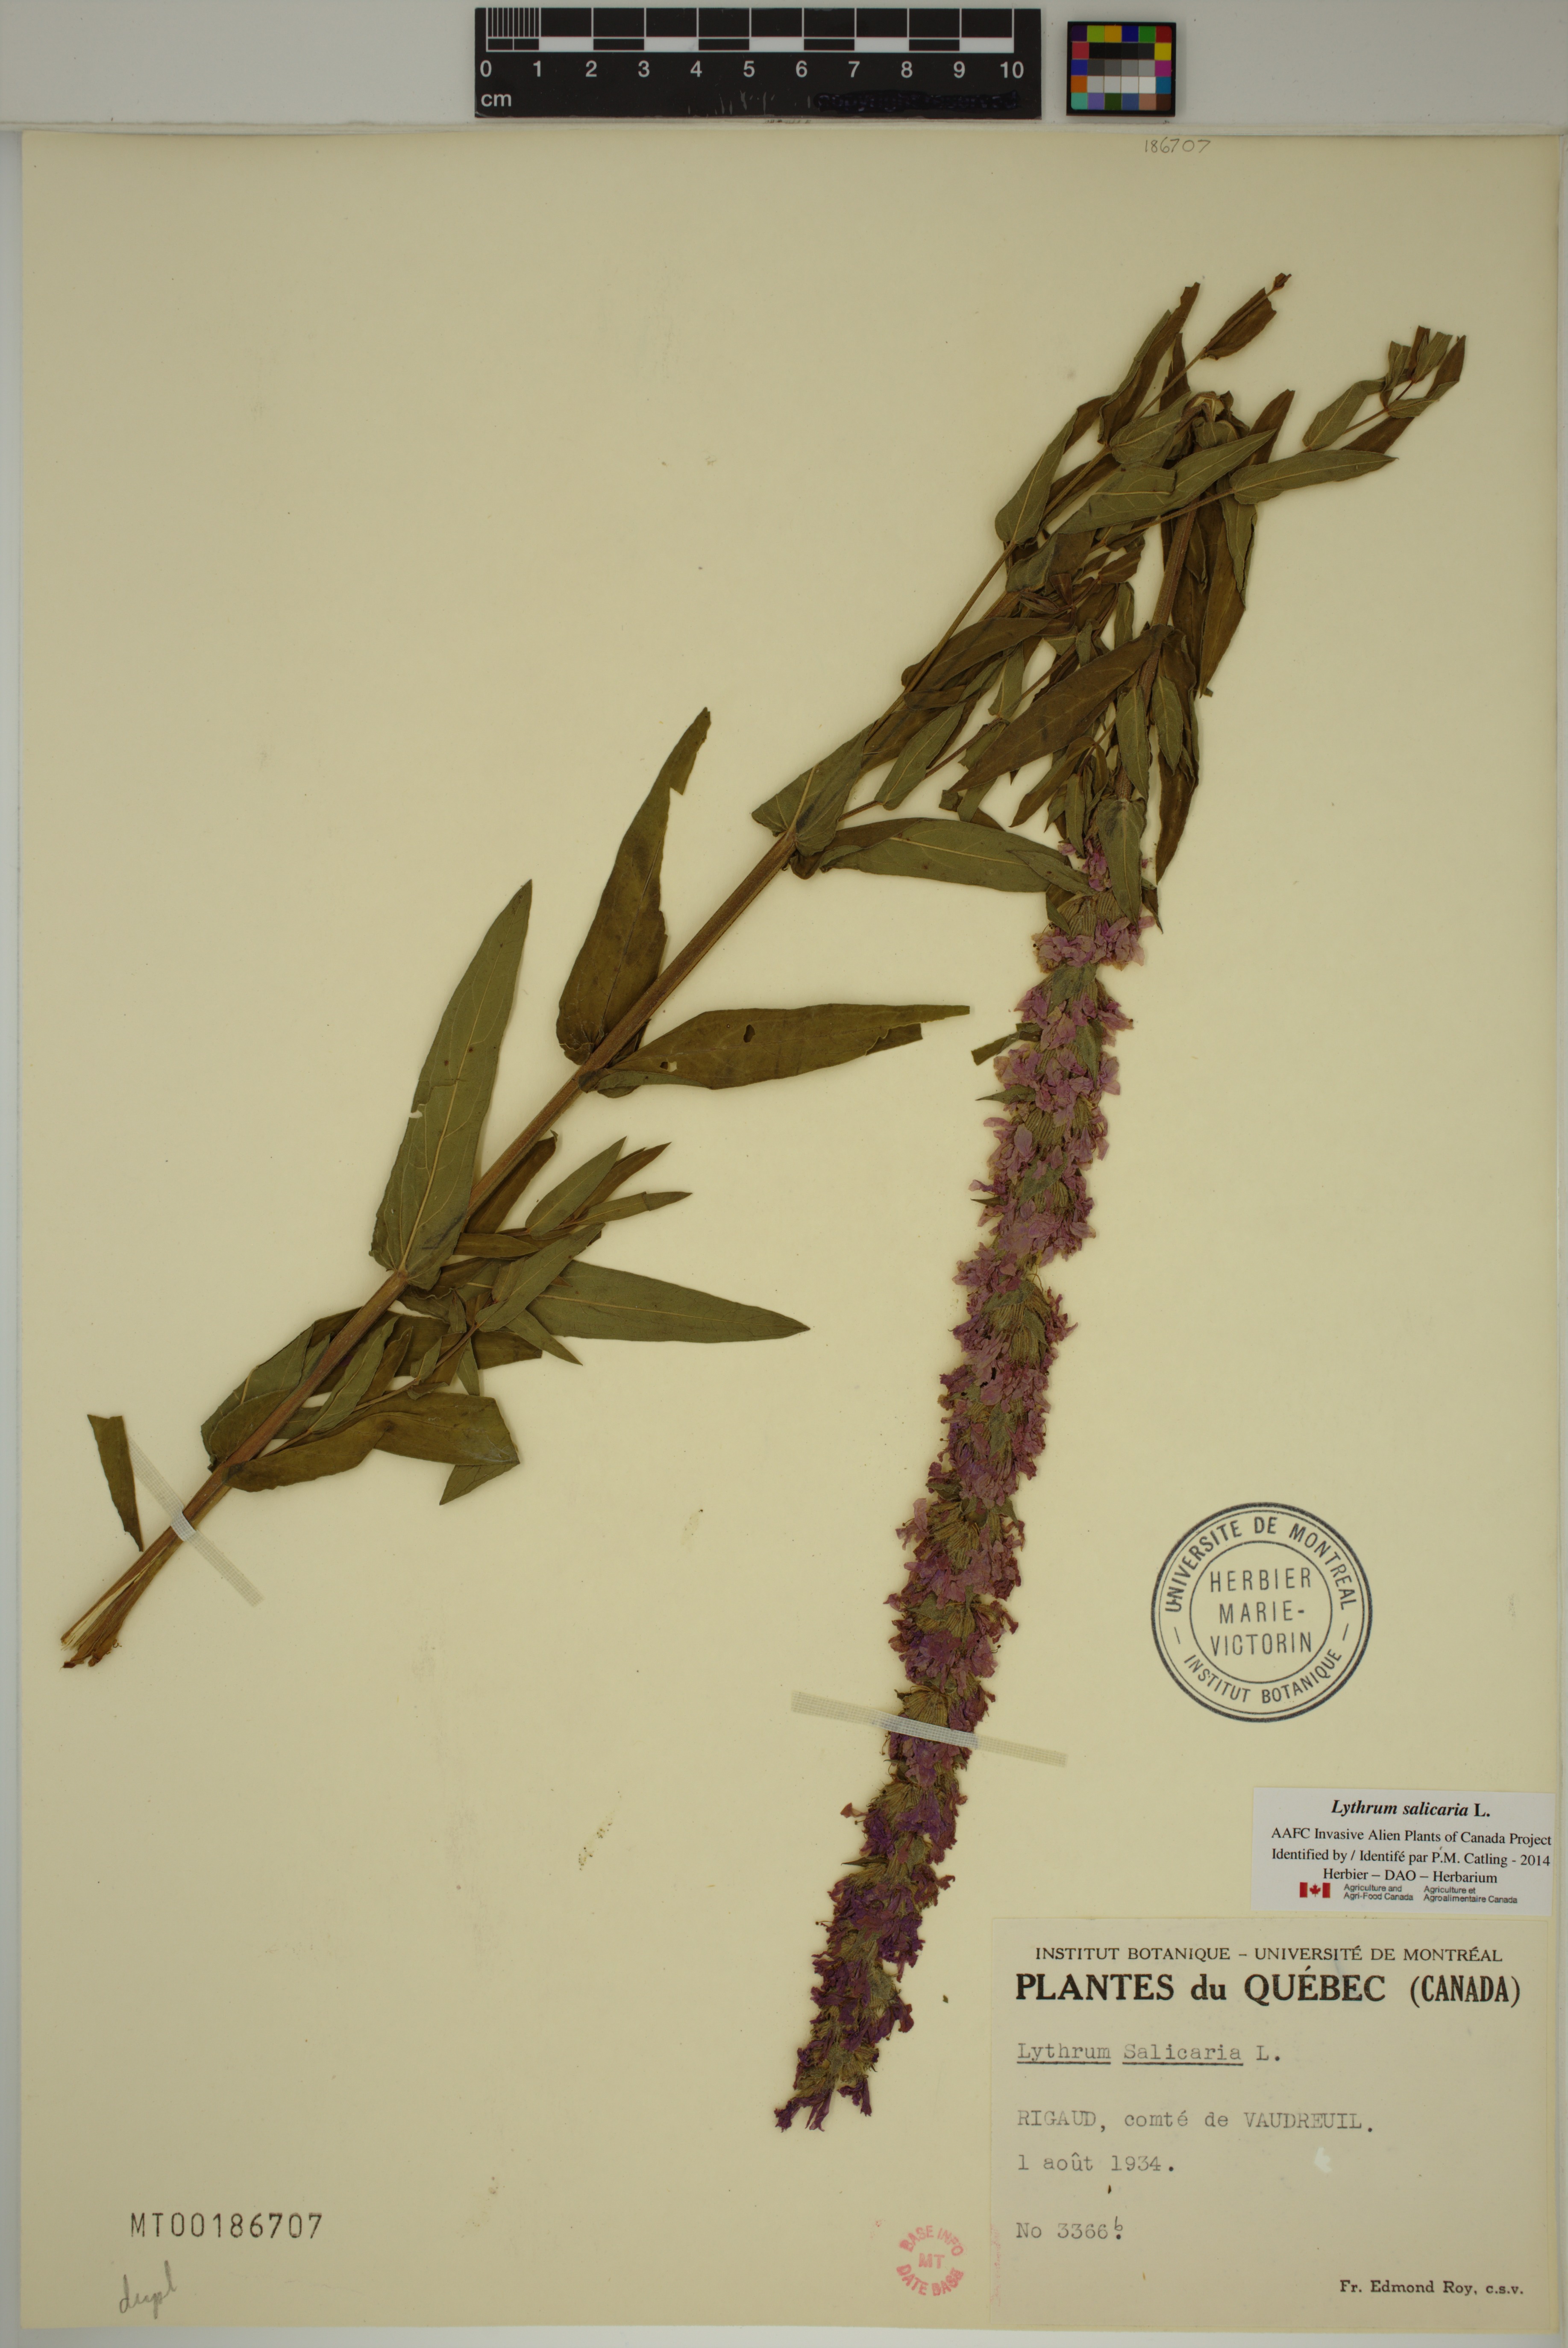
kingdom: Plantae
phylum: Tracheophyta
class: Magnoliopsida
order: Myrtales
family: Lythraceae
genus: Lythrum
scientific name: Lythrum salicaria
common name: Purple loosestrife
